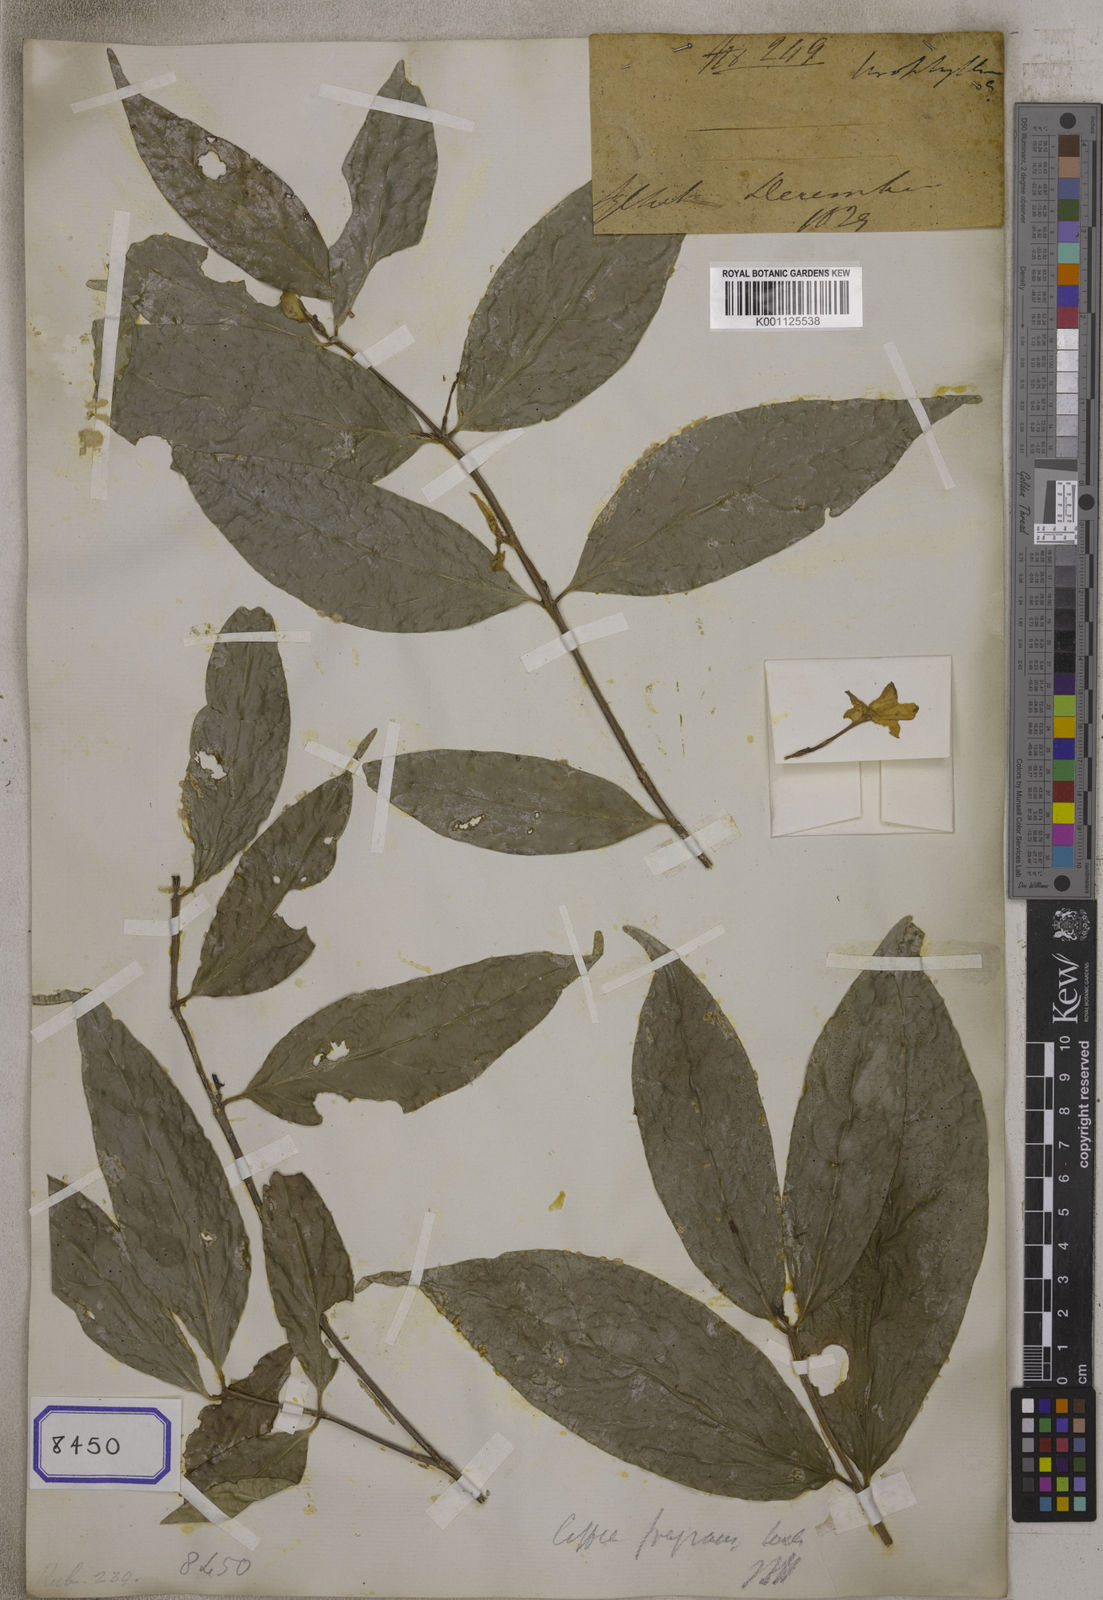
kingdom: Plantae
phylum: Tracheophyta
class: Magnoliopsida
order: Gentianales
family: Rubiaceae
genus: Coffea
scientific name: Coffea
